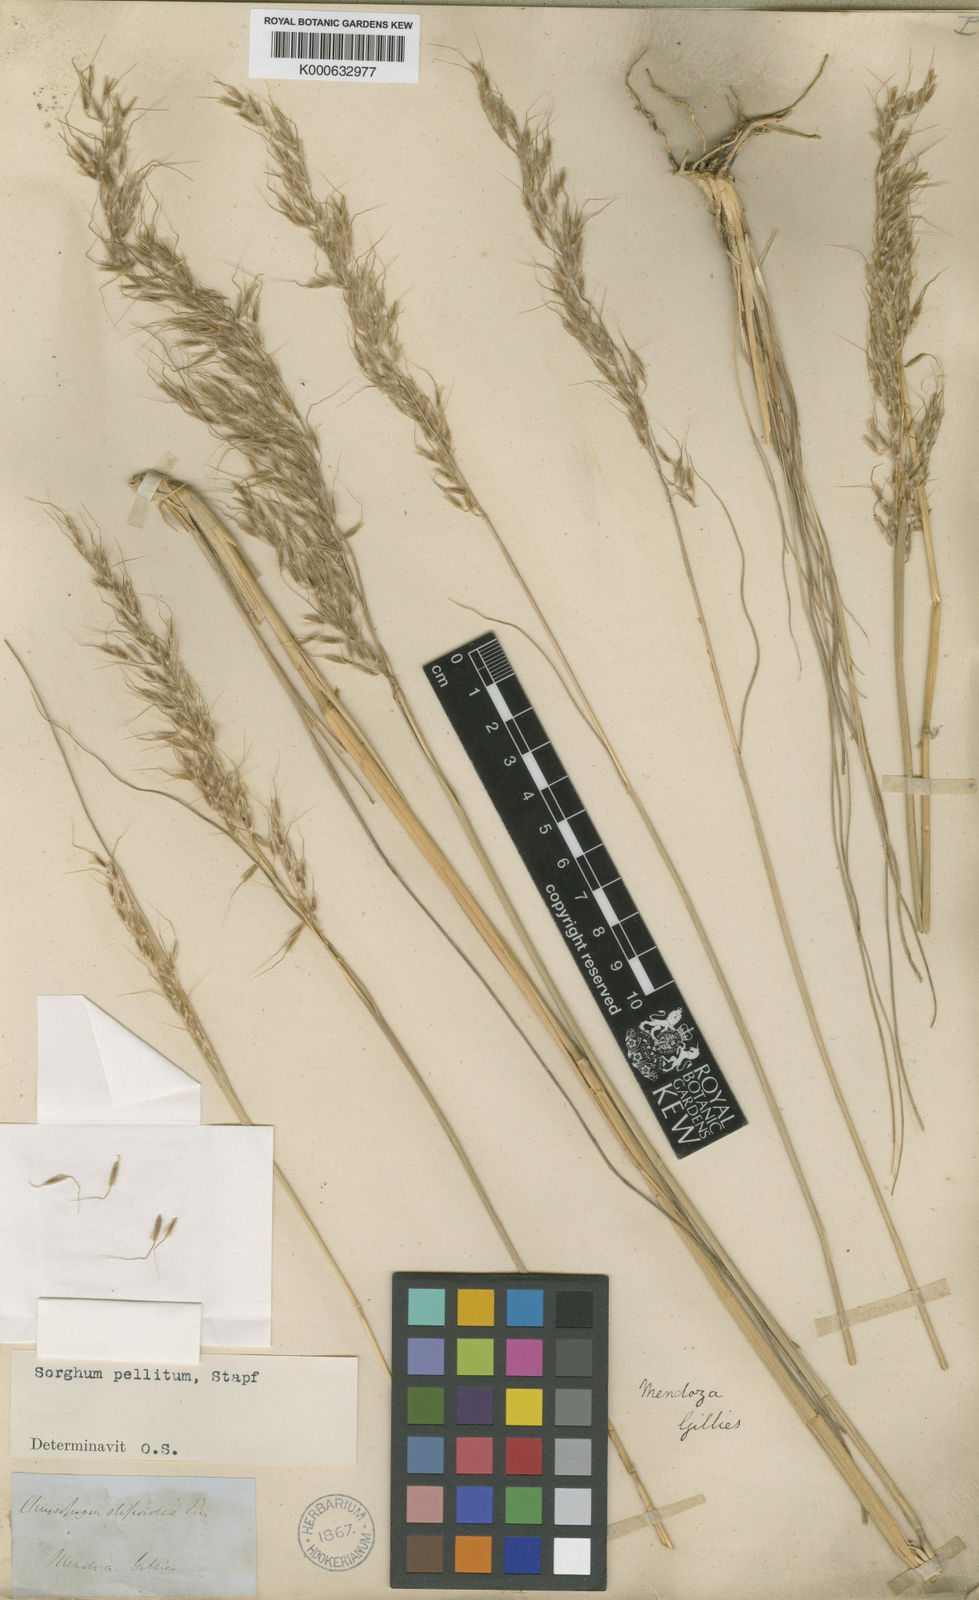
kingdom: Plantae
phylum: Tracheophyta
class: Liliopsida
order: Poales
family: Poaceae
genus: Sorghastrum
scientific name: Sorghastrum pellitum
